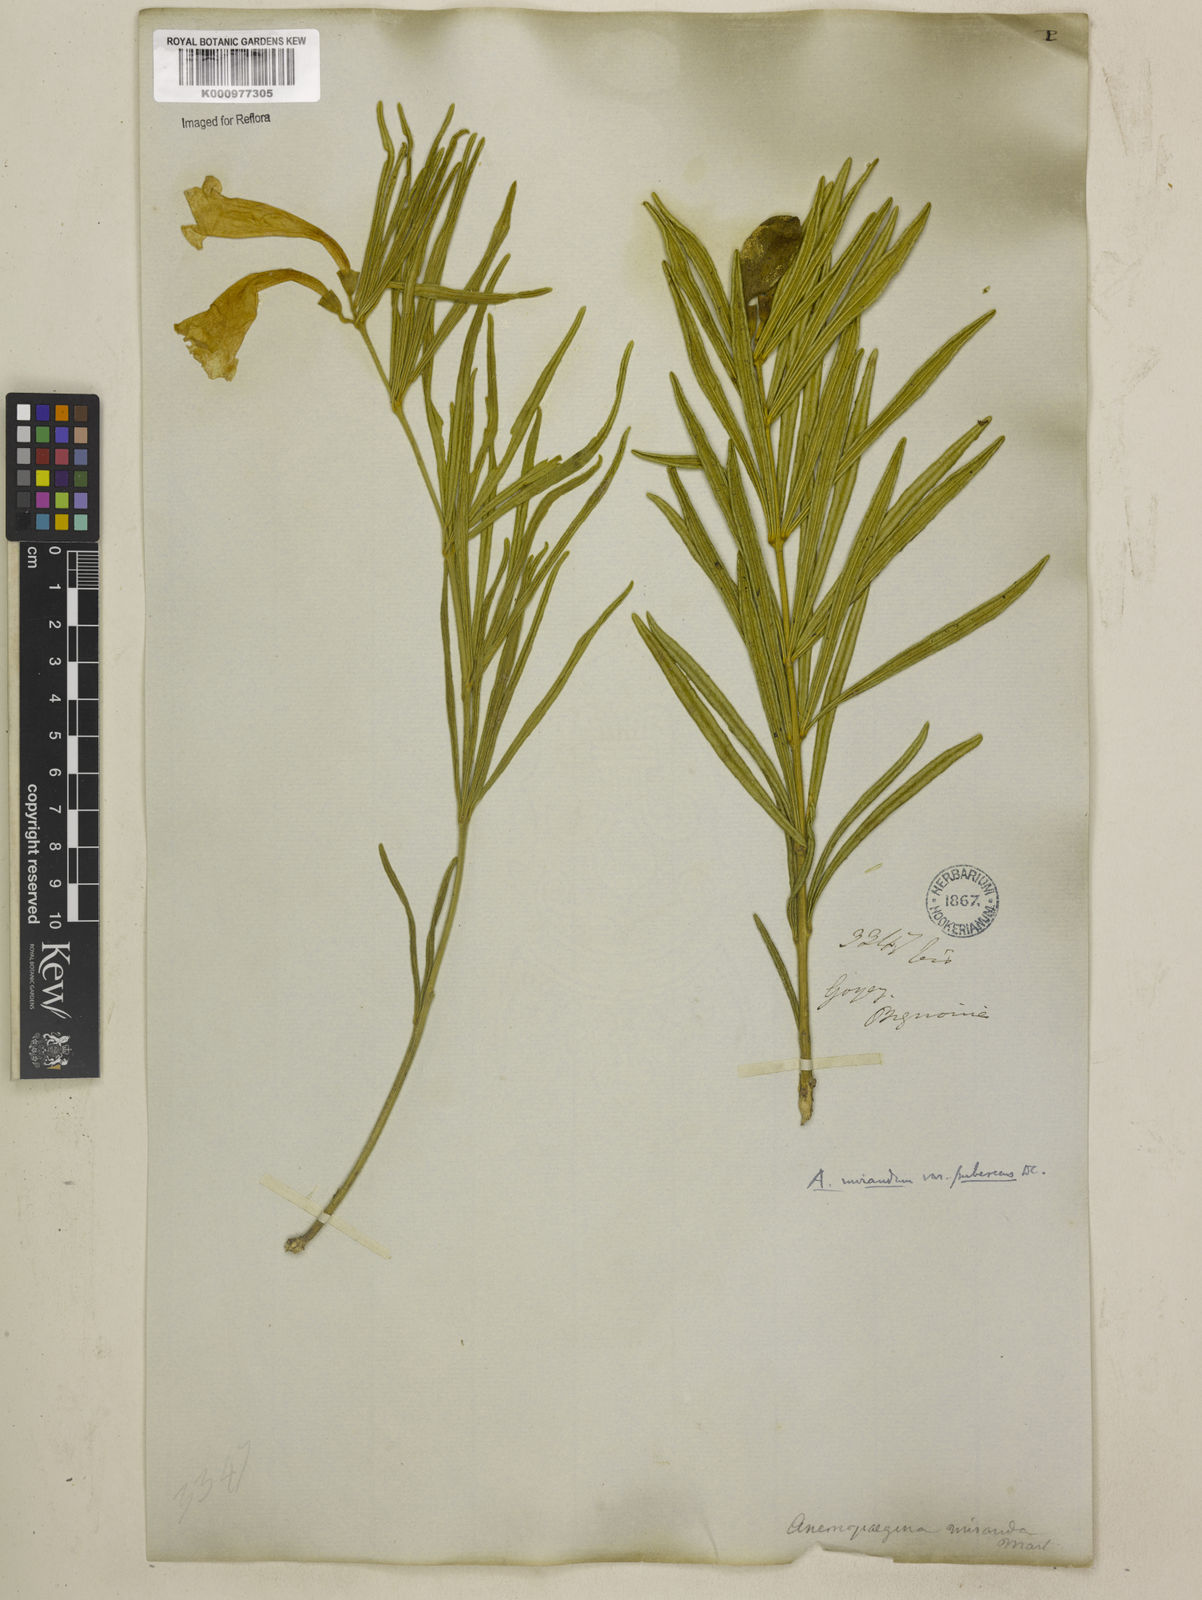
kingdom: Plantae
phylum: Tracheophyta
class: Magnoliopsida
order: Lamiales
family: Bignoniaceae
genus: Anemopaegma
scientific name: Anemopaegma arvense
